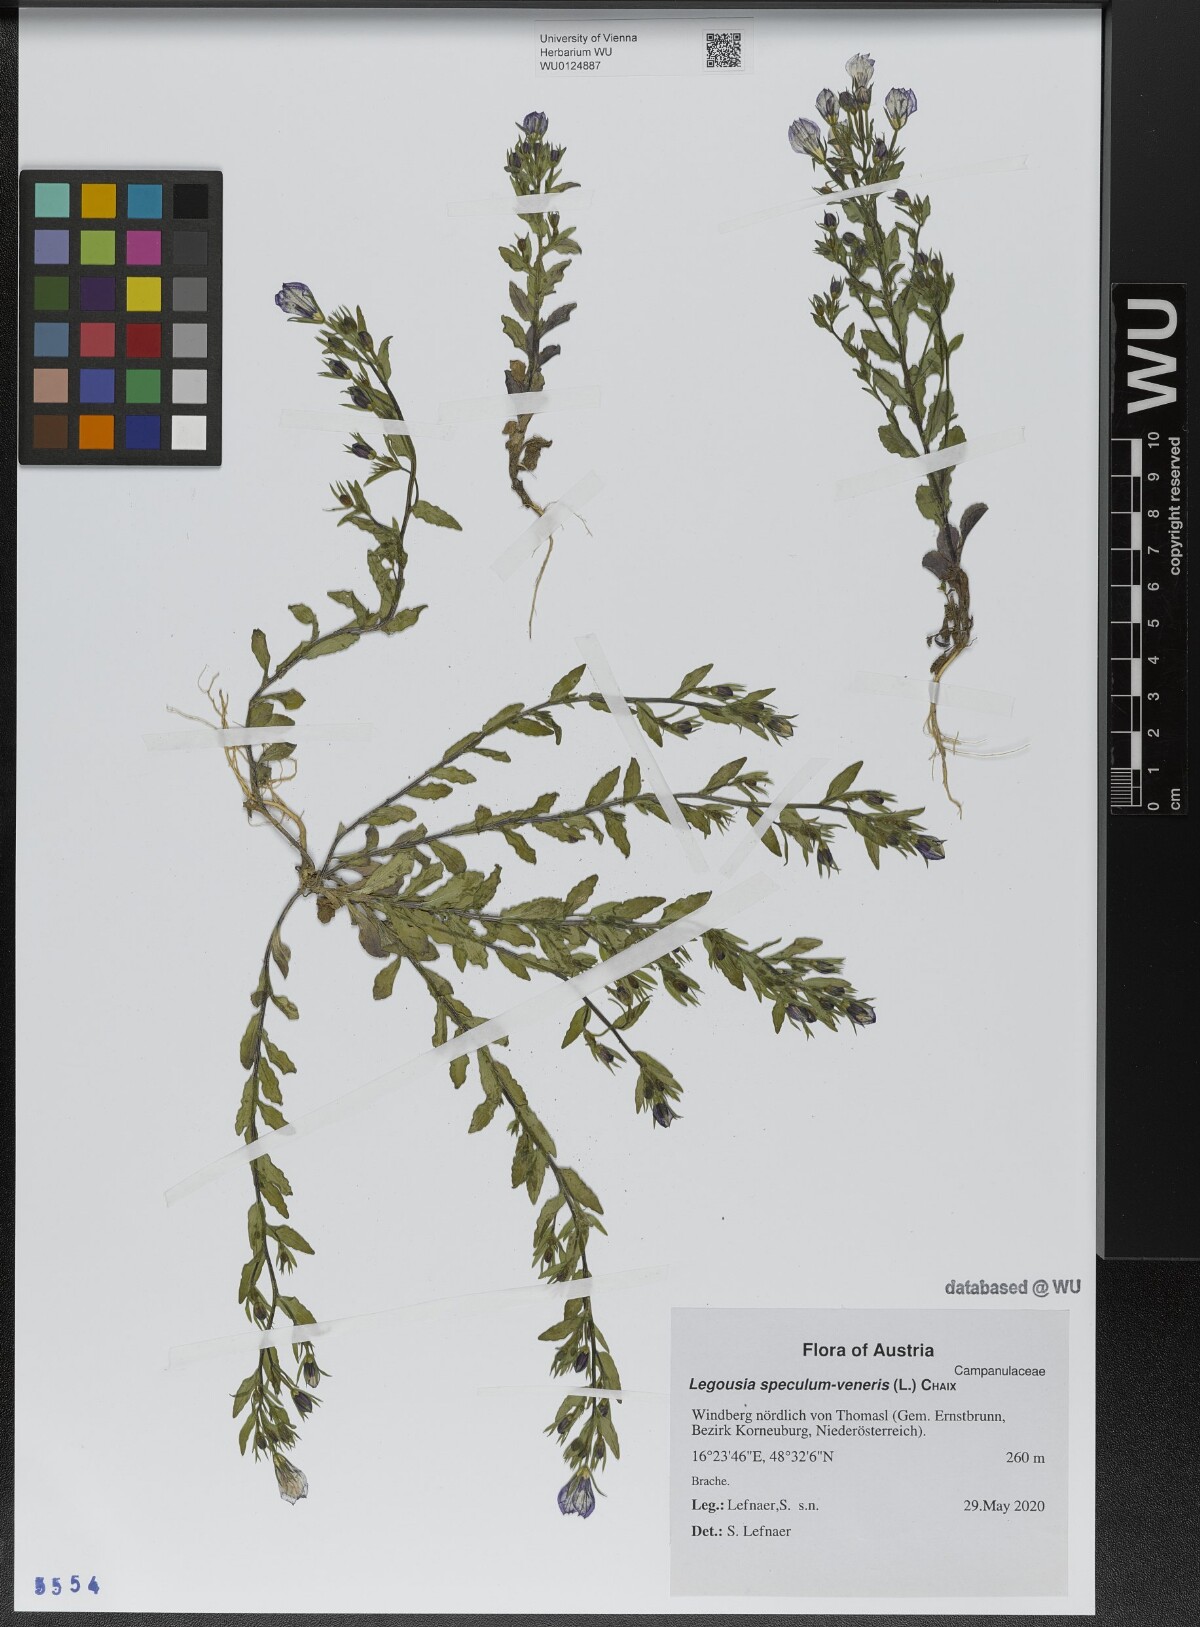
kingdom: Plantae
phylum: Tracheophyta
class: Magnoliopsida
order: Asterales
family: Campanulaceae
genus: Legousia
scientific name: Legousia speculum-veneris
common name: Large venus's-looking-glass
